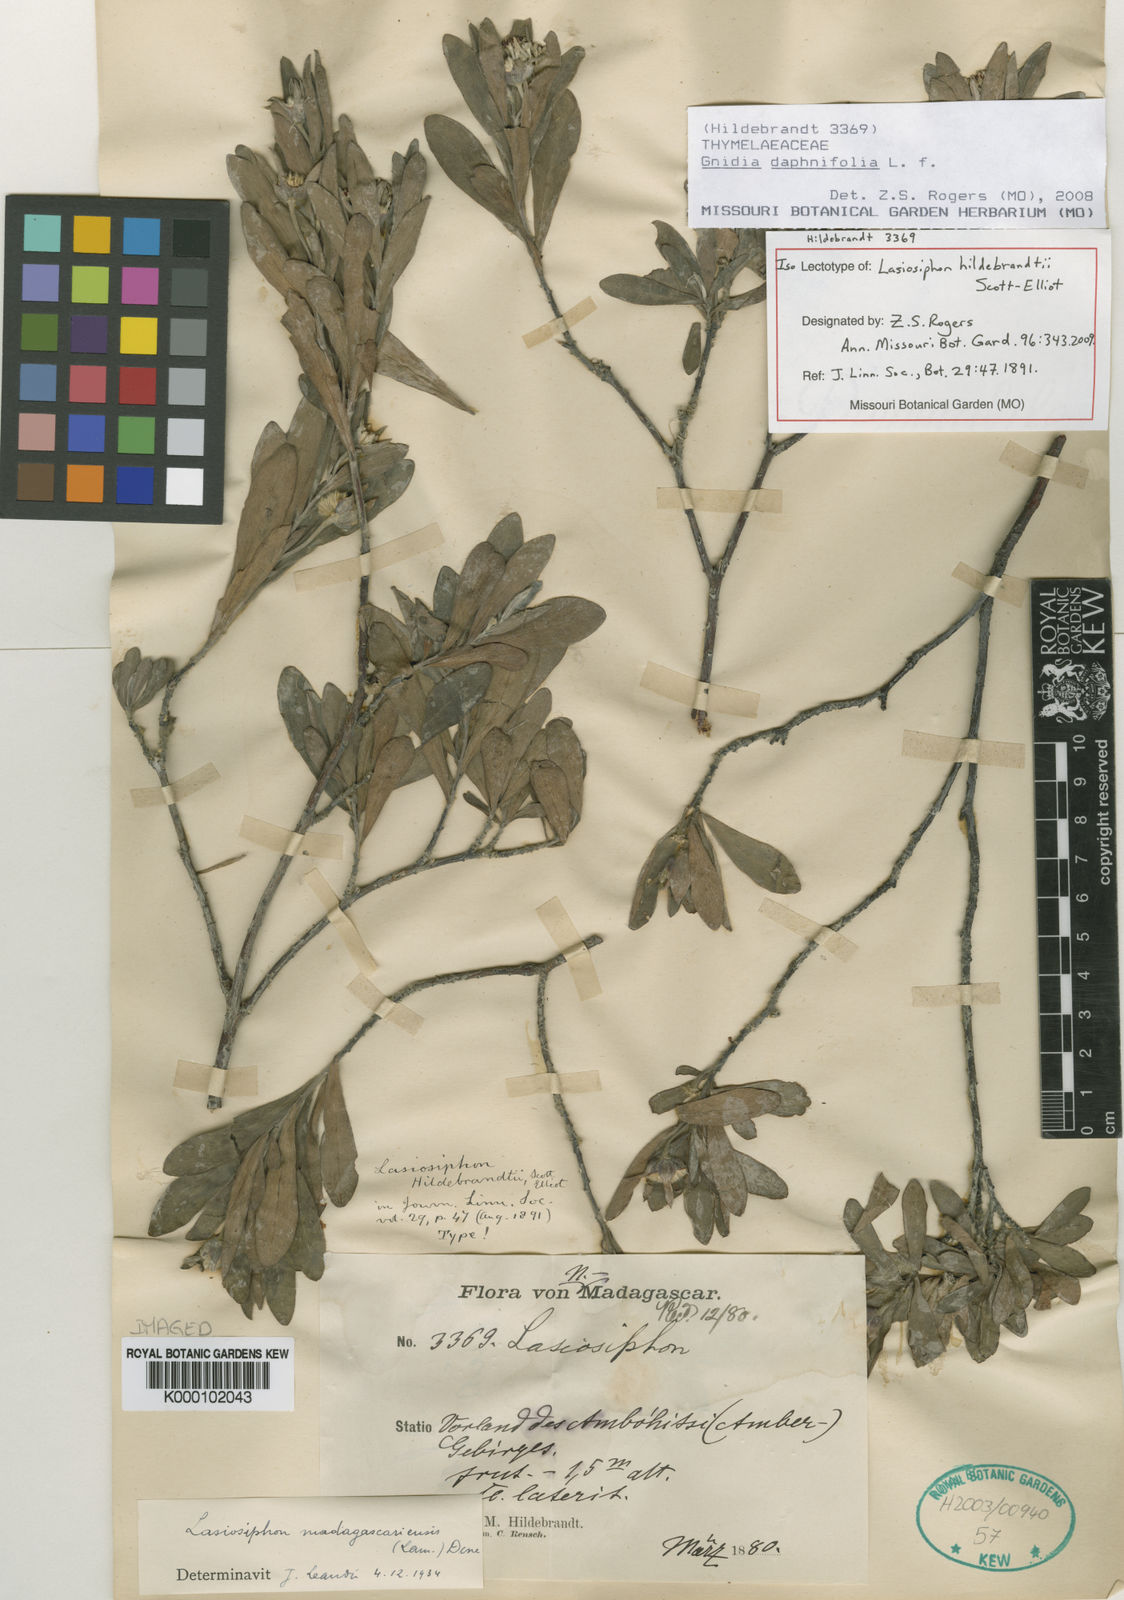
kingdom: Plantae
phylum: Tracheophyta
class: Magnoliopsida
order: Malvales
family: Thymelaeaceae
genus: Gnidia
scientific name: Gnidia daphnifolia
